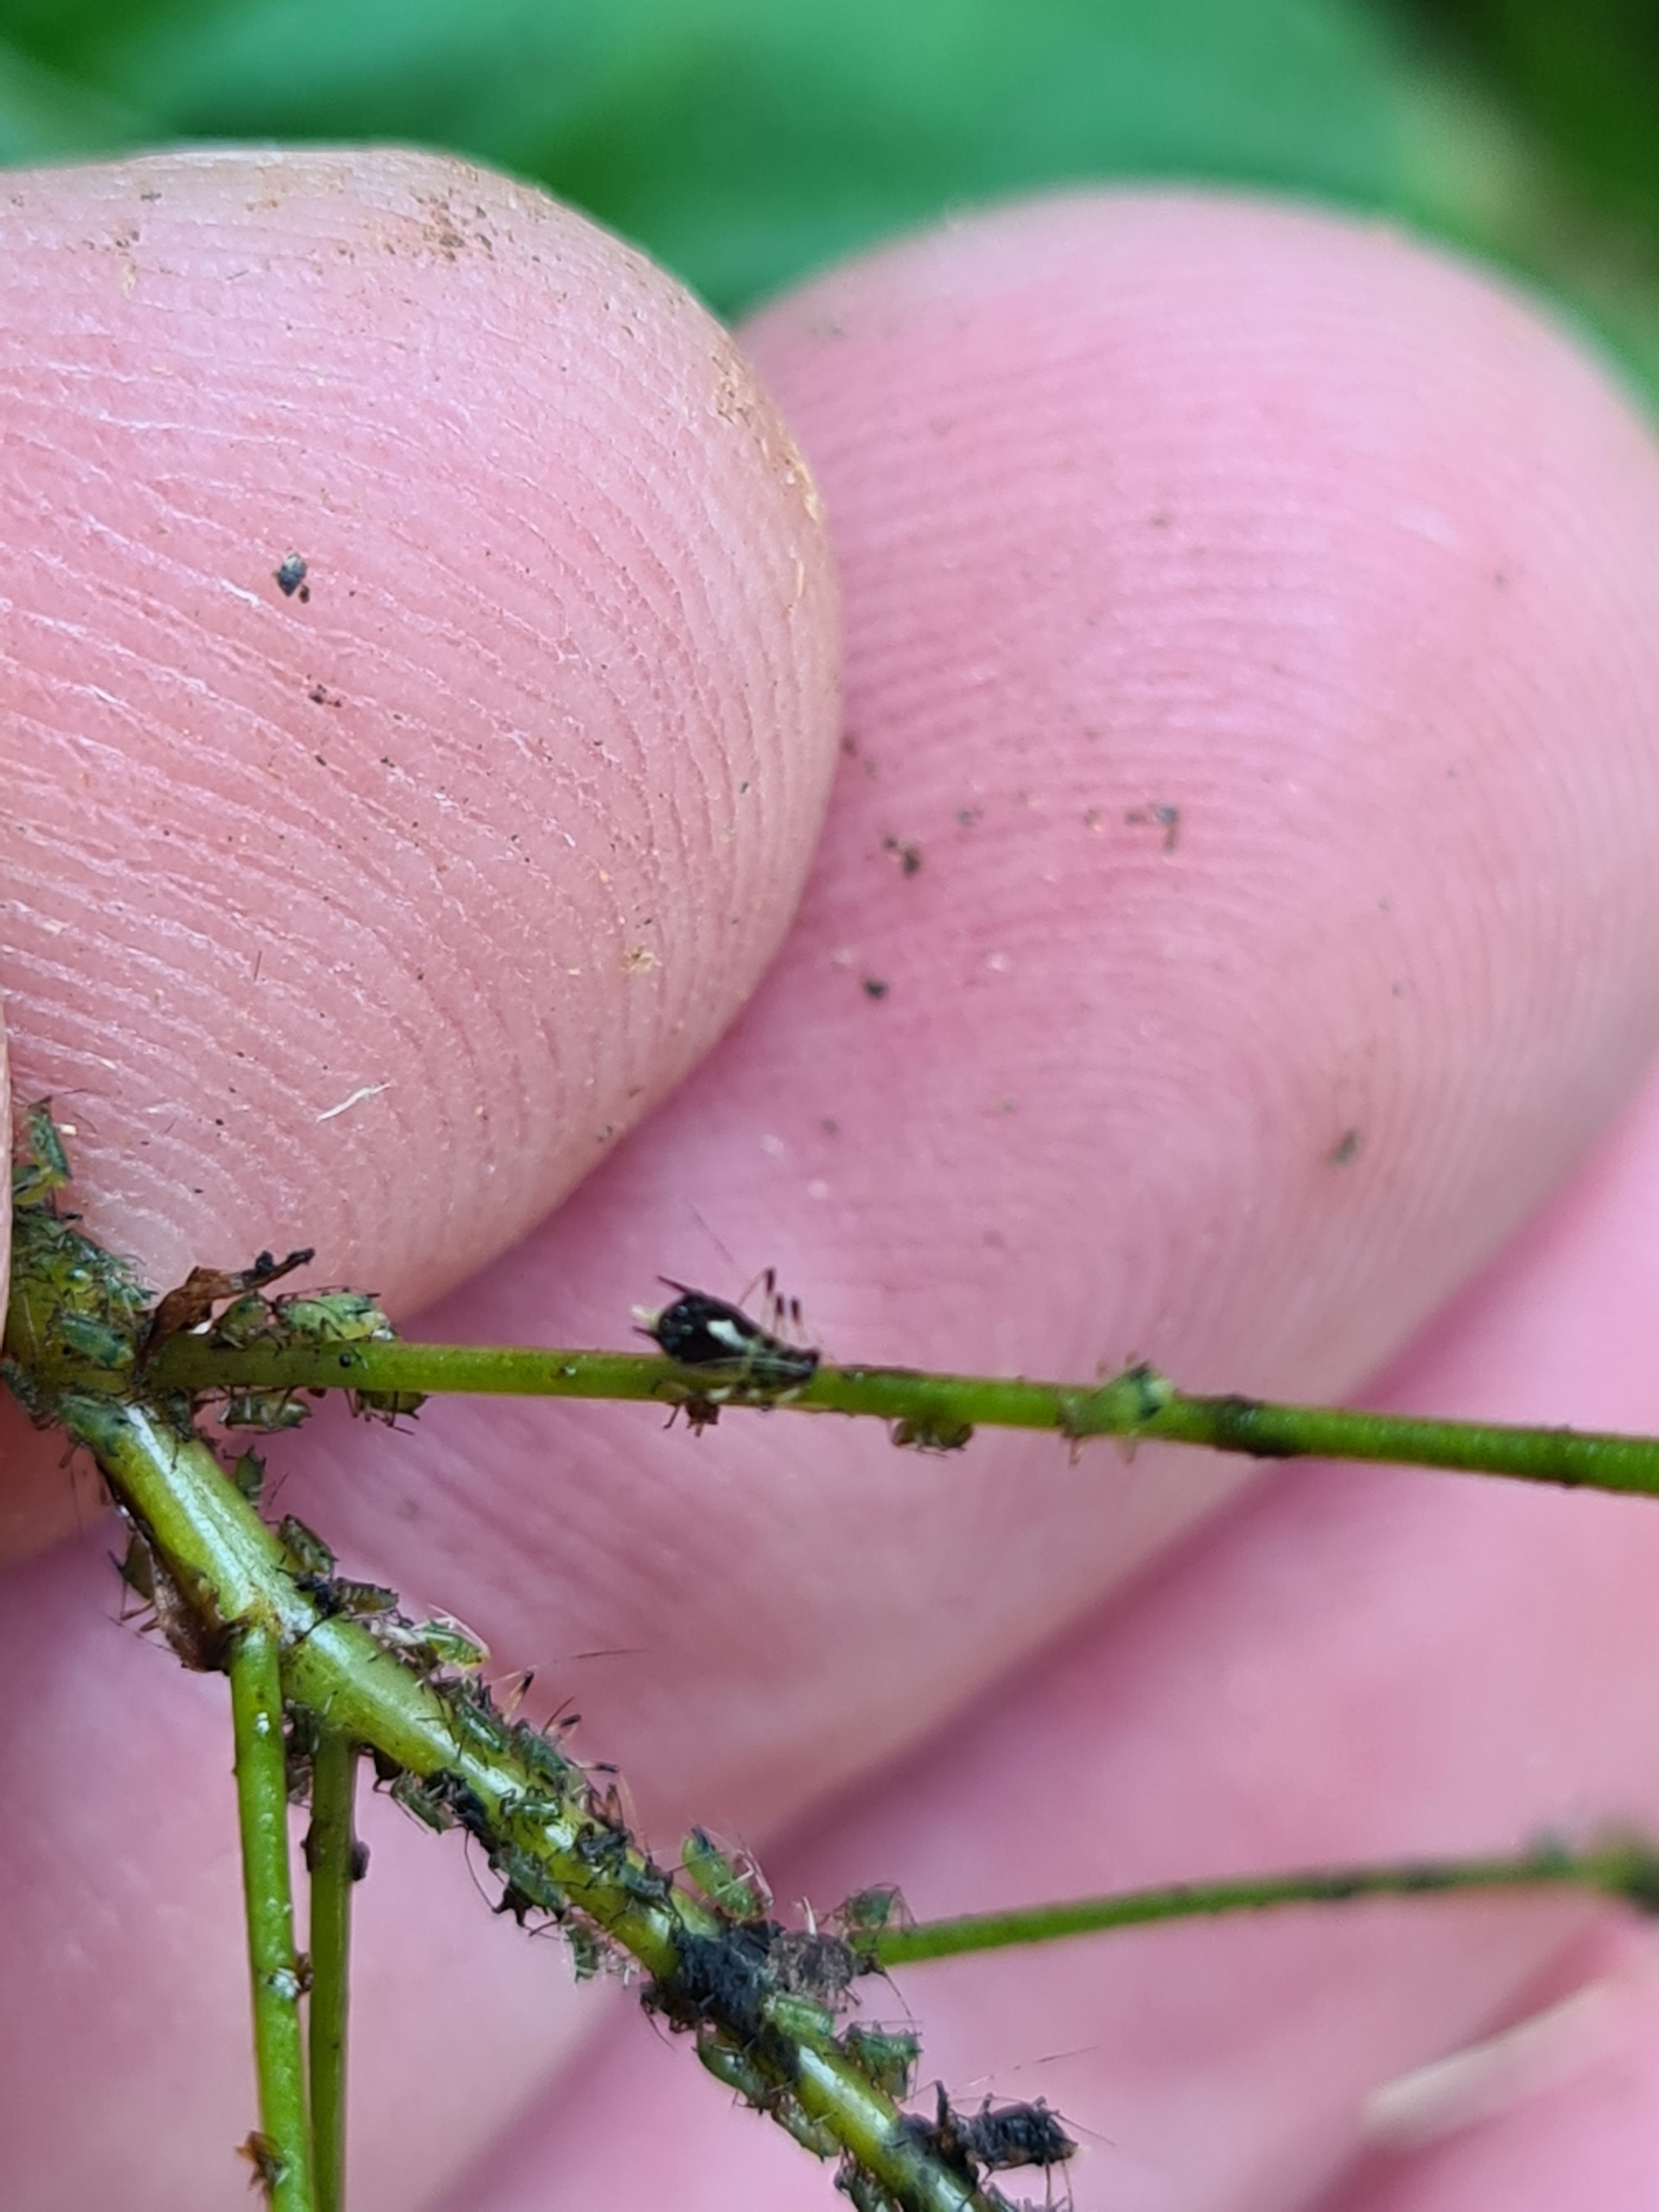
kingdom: Animalia
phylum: Arthropoda
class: Insecta
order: Hemiptera
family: Aphididae
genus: Impatientinum
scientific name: Impatientinum asiaticum
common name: Asiatisk balsaminbladlus
